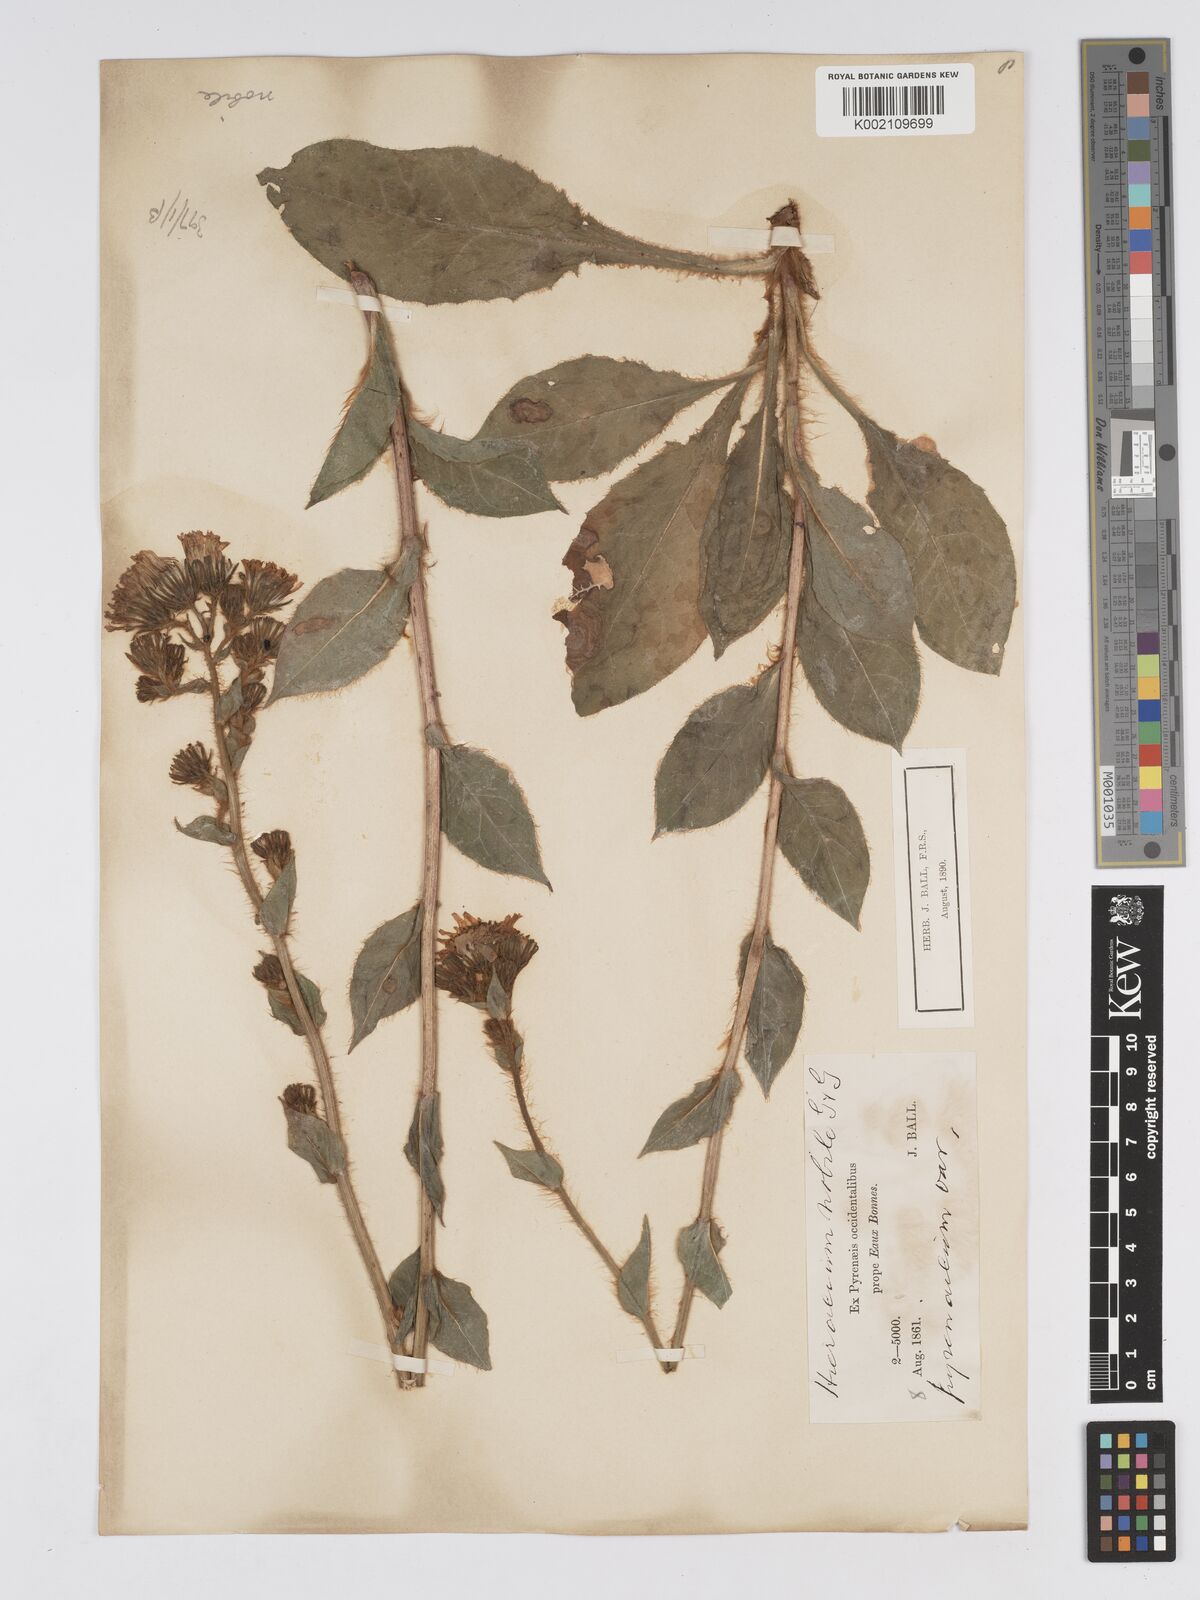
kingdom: Plantae
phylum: Tracheophyta
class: Magnoliopsida
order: Asterales
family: Asteraceae
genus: Hieracium
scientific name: Hieracium nobile
